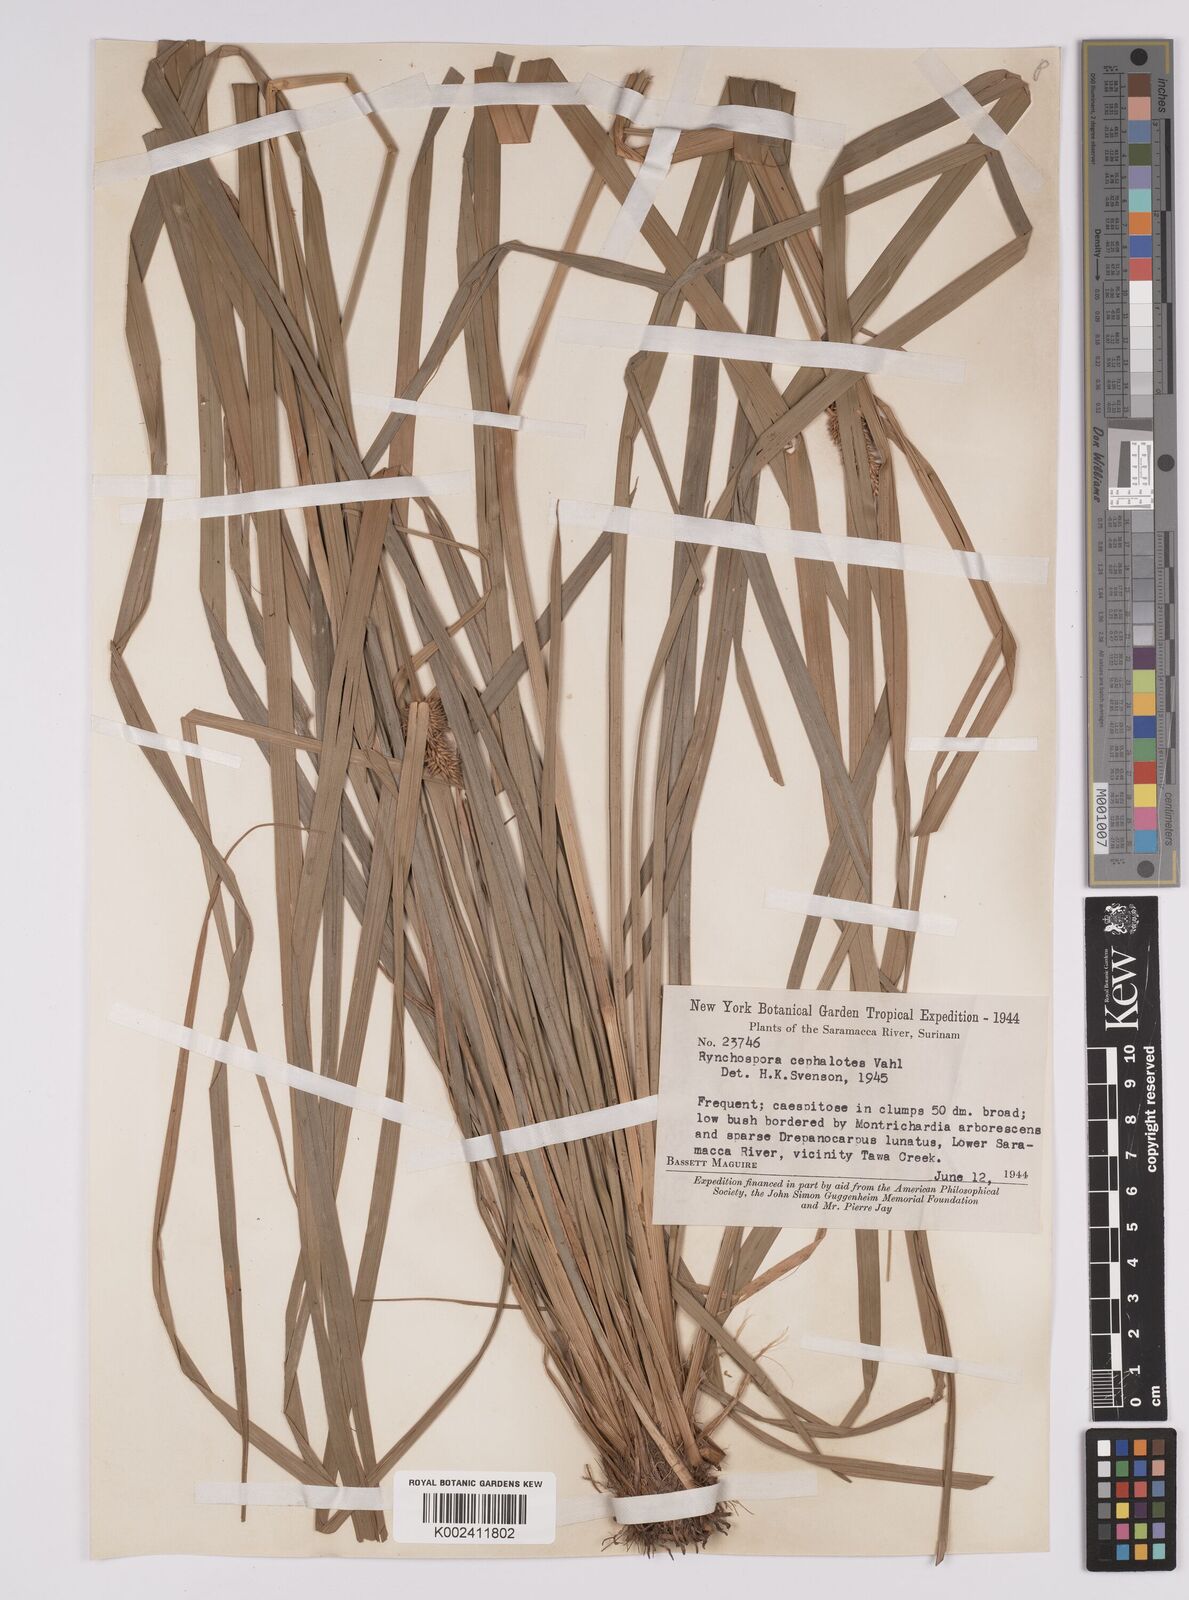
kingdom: Plantae
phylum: Tracheophyta
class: Liliopsida
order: Poales
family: Cyperaceae
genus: Rhynchospora
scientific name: Rhynchospora cephalotes
